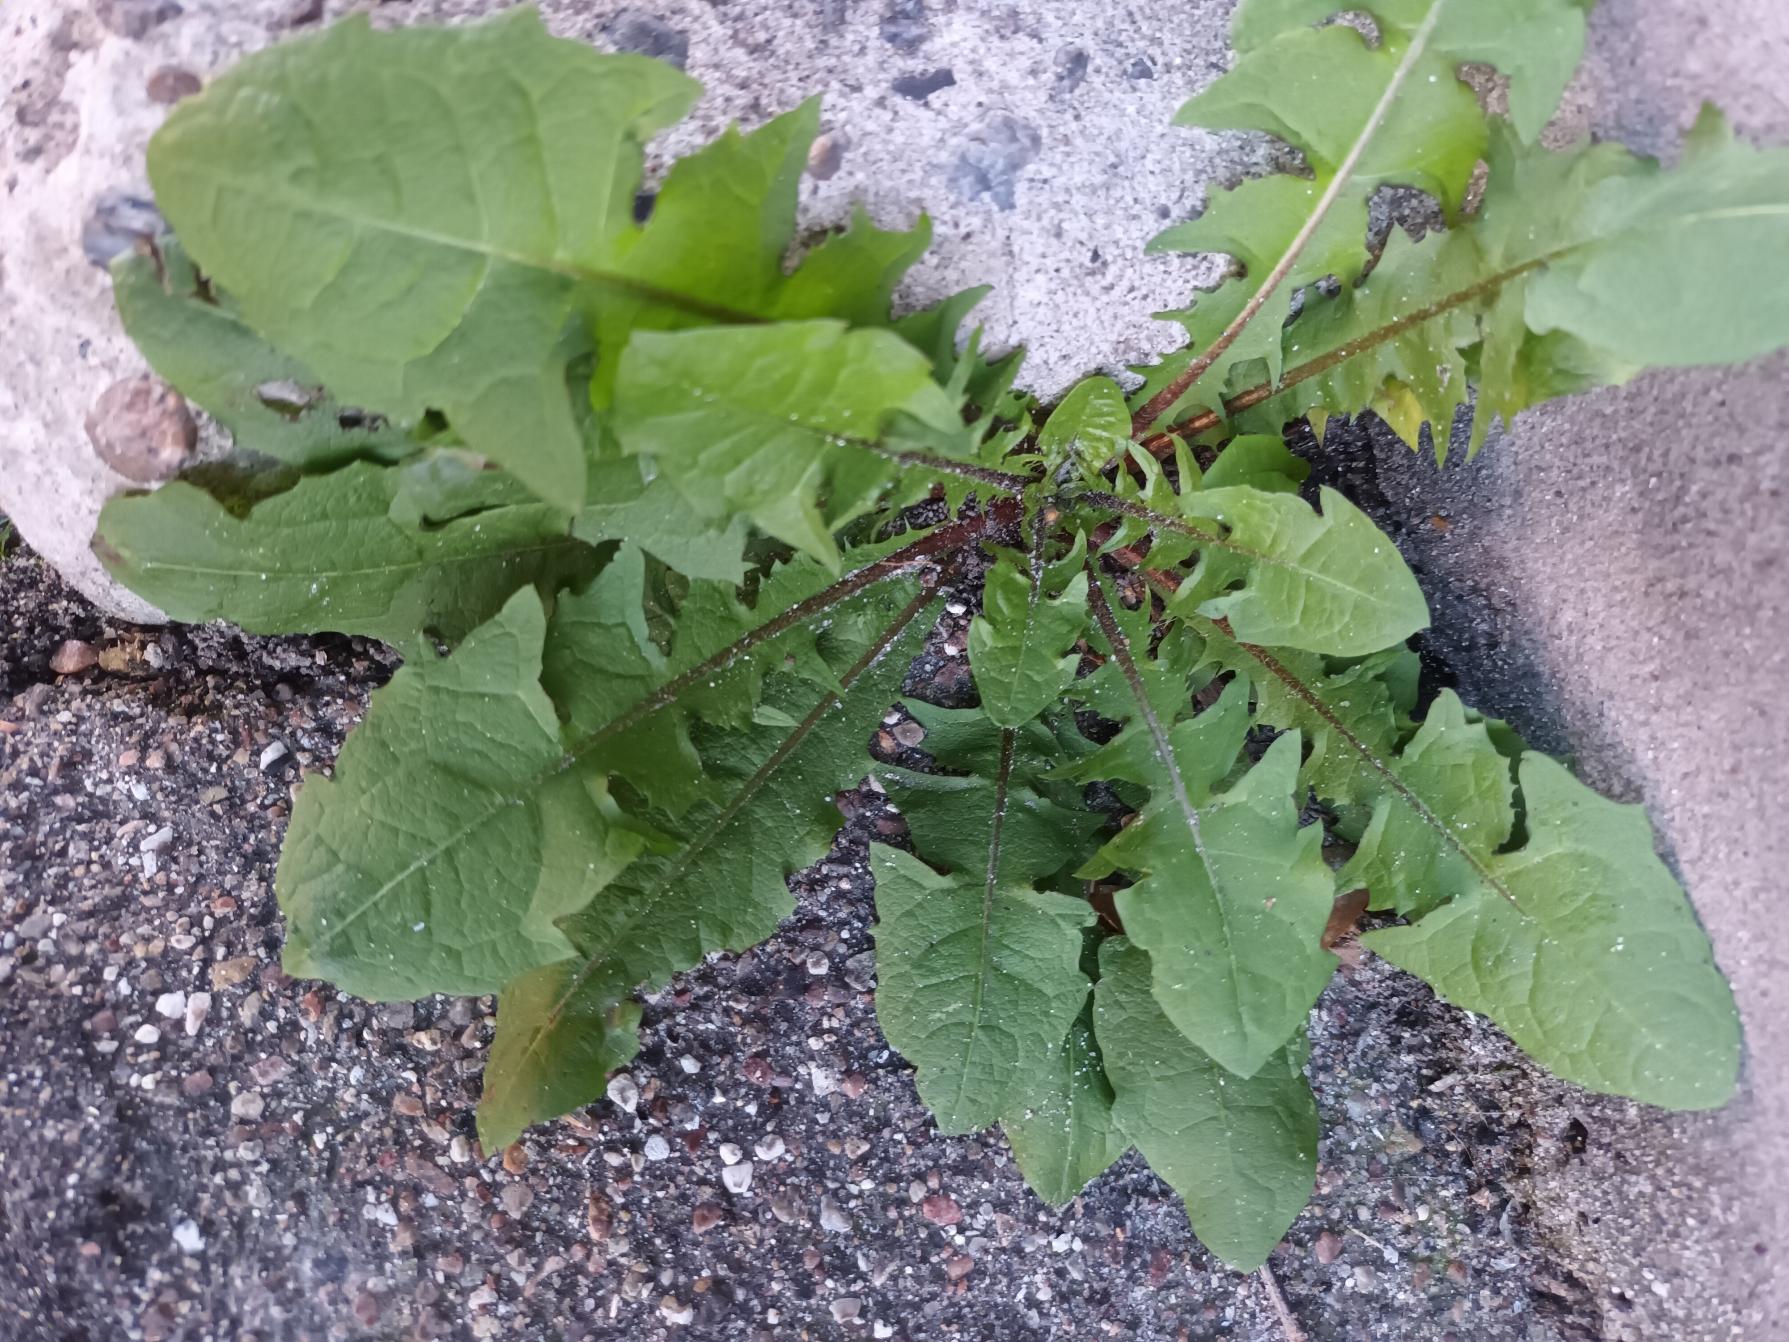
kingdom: Plantae
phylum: Tracheophyta
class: Magnoliopsida
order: Asterales
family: Asteraceae
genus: Taraxacum
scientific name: Taraxacum
